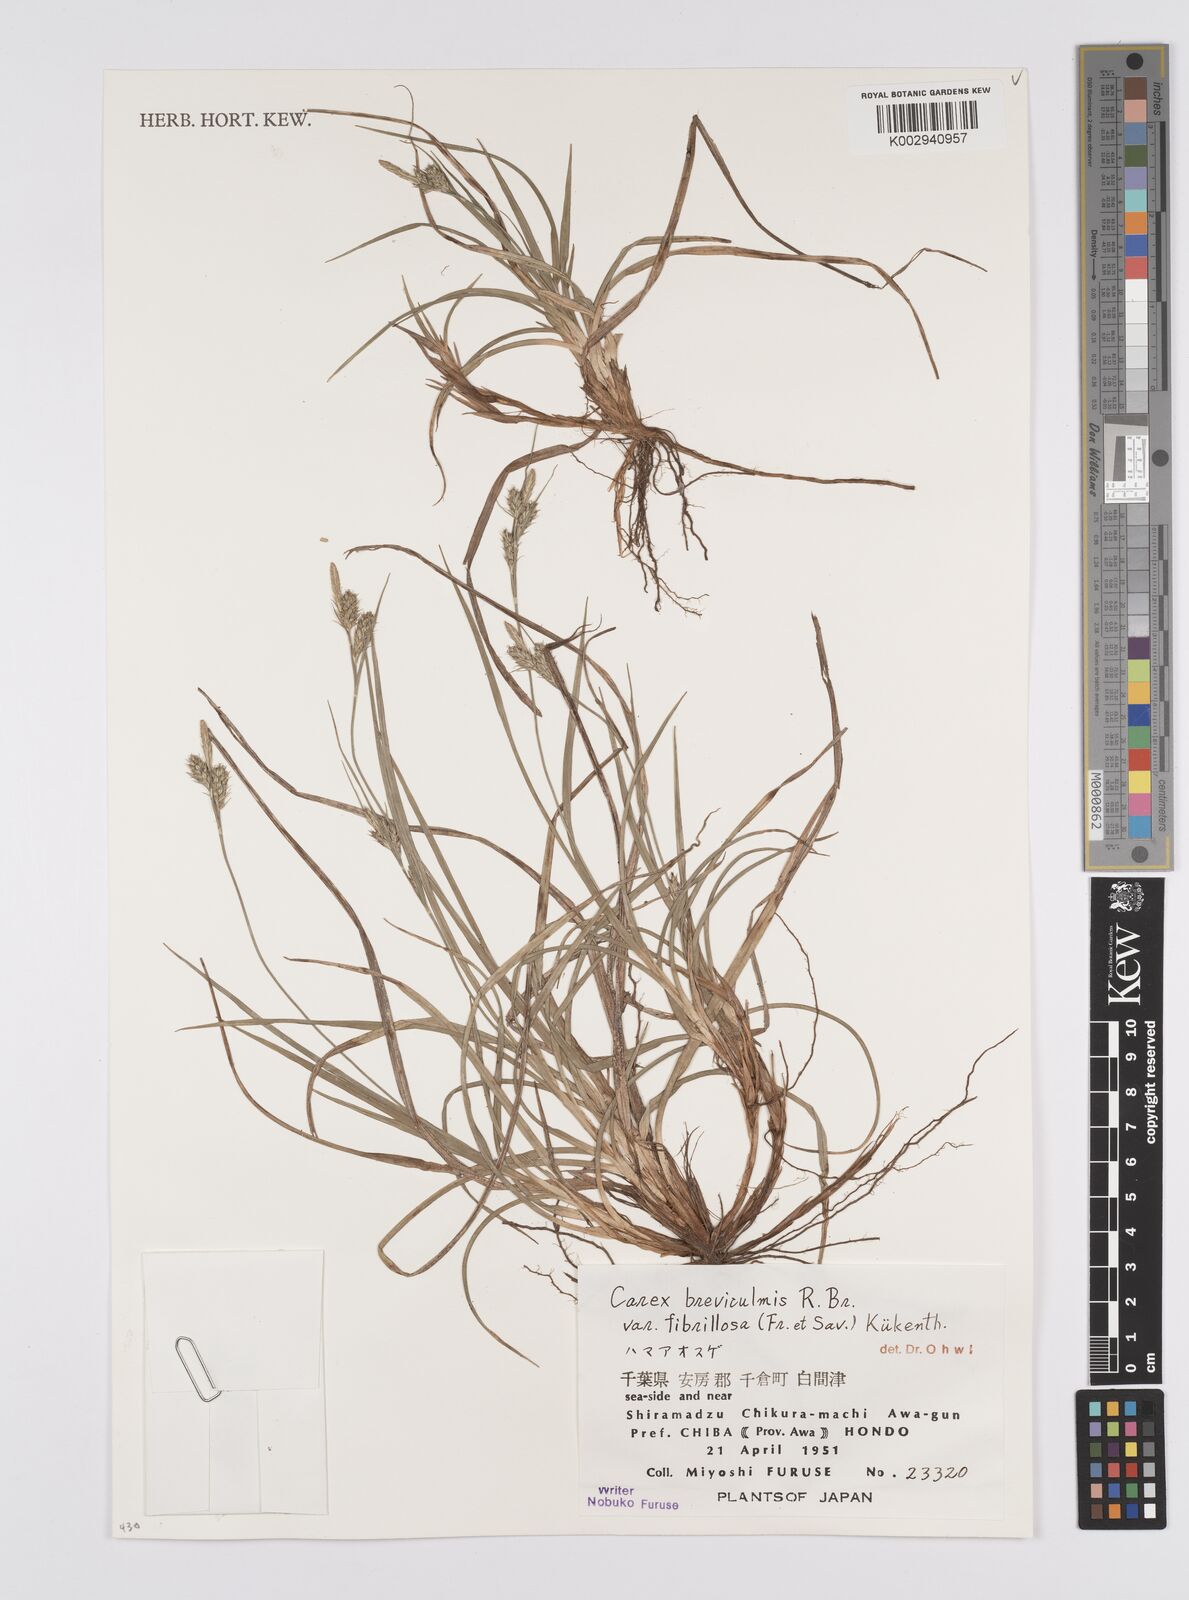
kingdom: Plantae
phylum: Tracheophyta
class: Liliopsida
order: Poales
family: Cyperaceae
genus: Carex
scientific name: Carex fibrillosa
